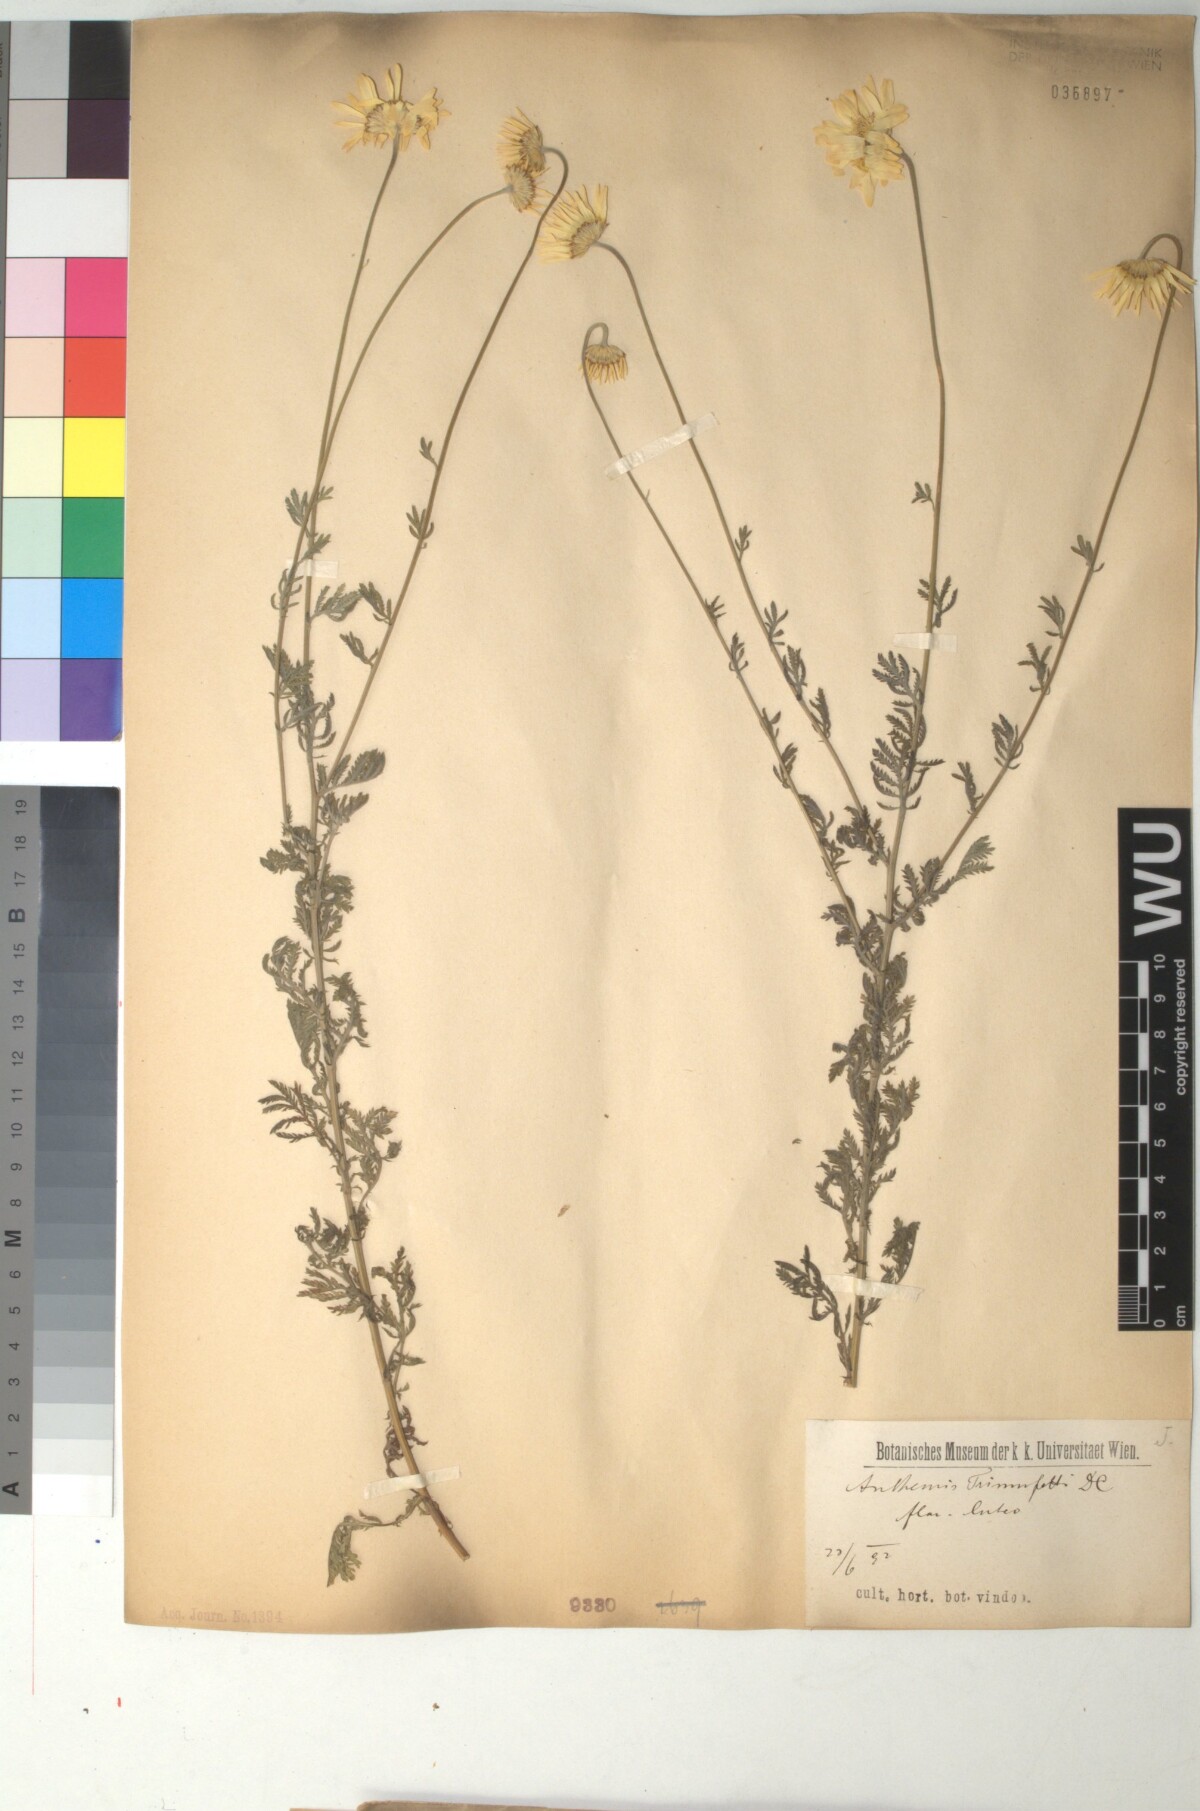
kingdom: Plantae
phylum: Tracheophyta
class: Magnoliopsida
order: Asterales
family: Asteraceae
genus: Cota
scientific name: Cota triumfetti
